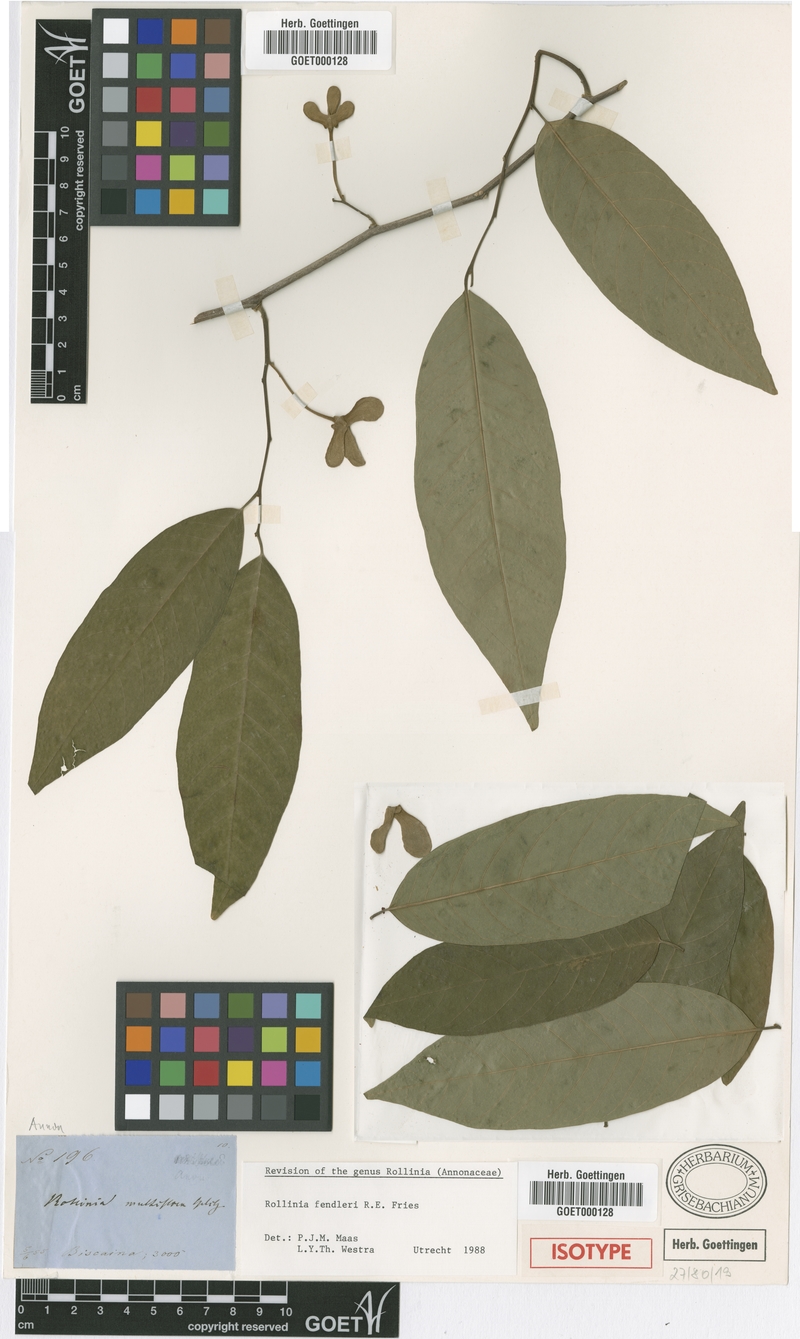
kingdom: Plantae
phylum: Tracheophyta
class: Magnoliopsida
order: Magnoliales
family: Annonaceae
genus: Annona
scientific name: Annona fendleri
